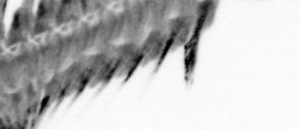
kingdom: Animalia
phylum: Annelida
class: Polychaeta
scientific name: Polychaeta
